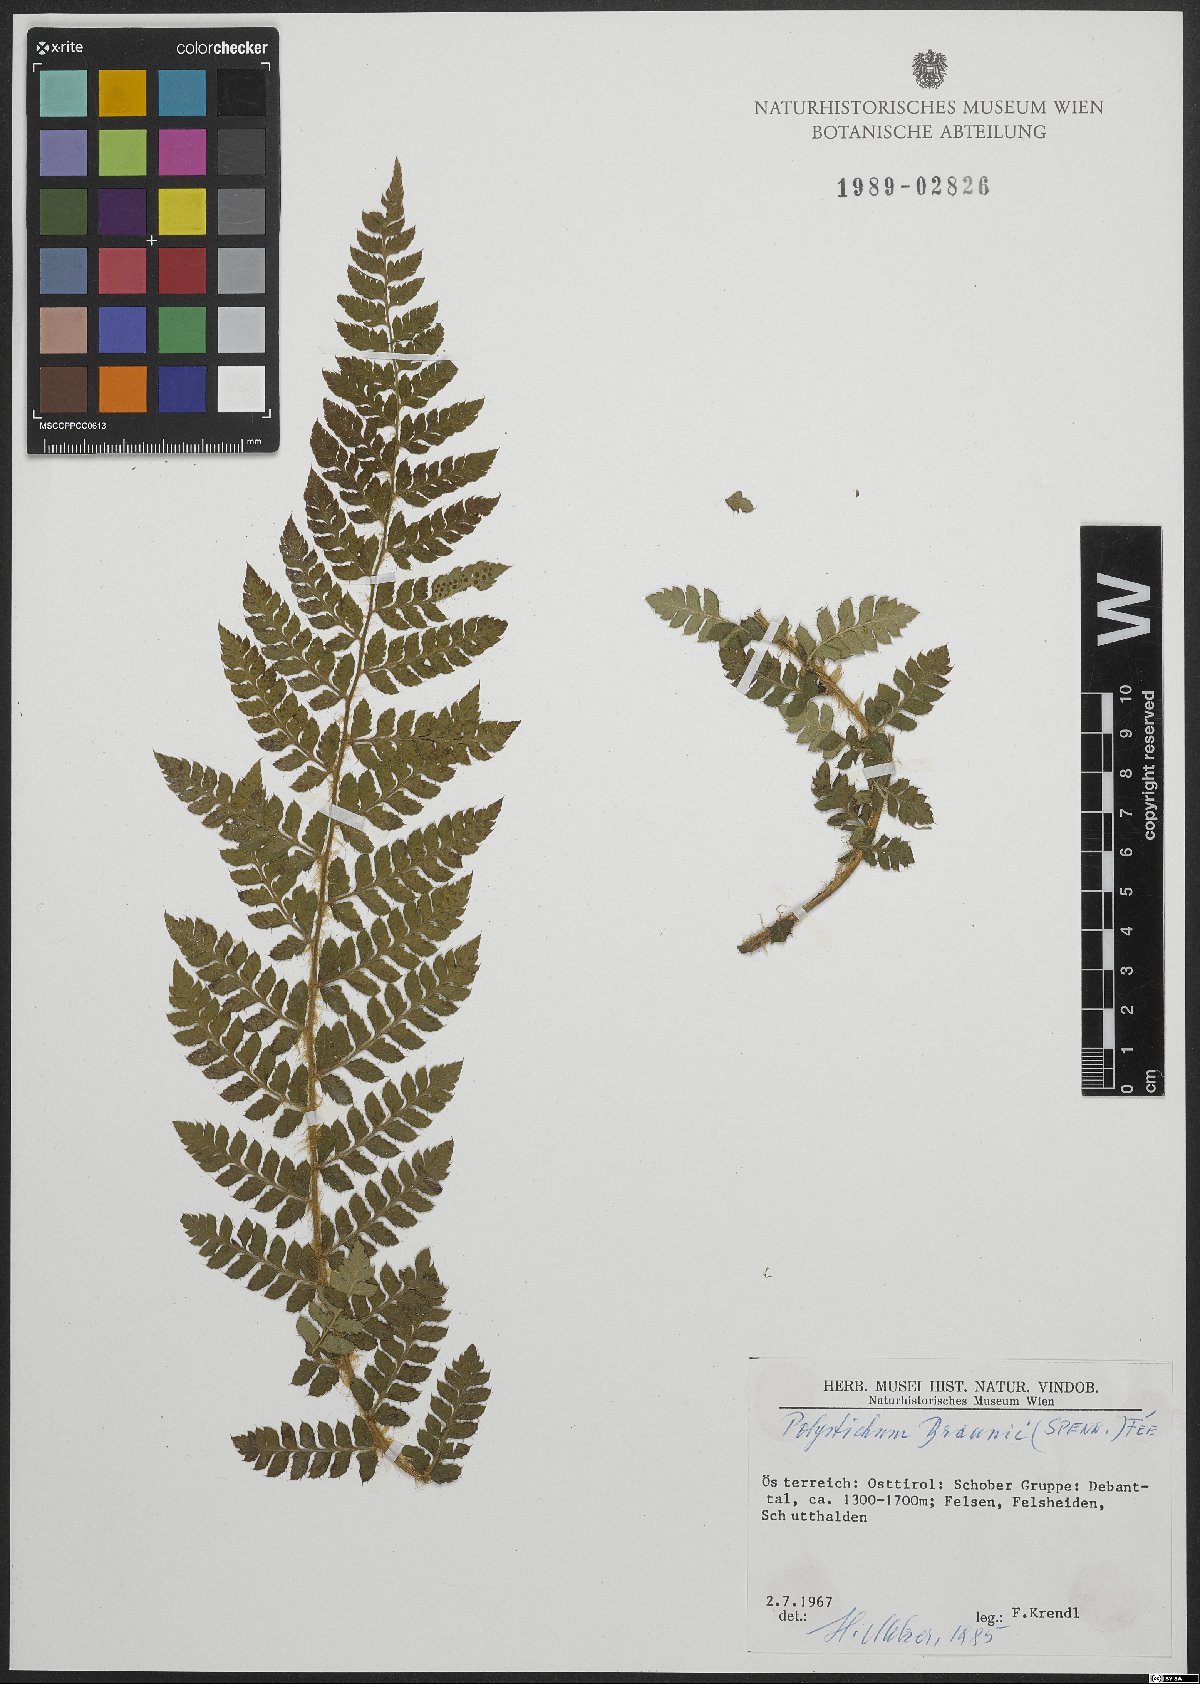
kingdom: Plantae
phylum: Tracheophyta
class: Polypodiopsida
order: Polypodiales
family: Dryopteridaceae
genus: Polystichum
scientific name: Polystichum braunii
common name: Braun's holly fern
